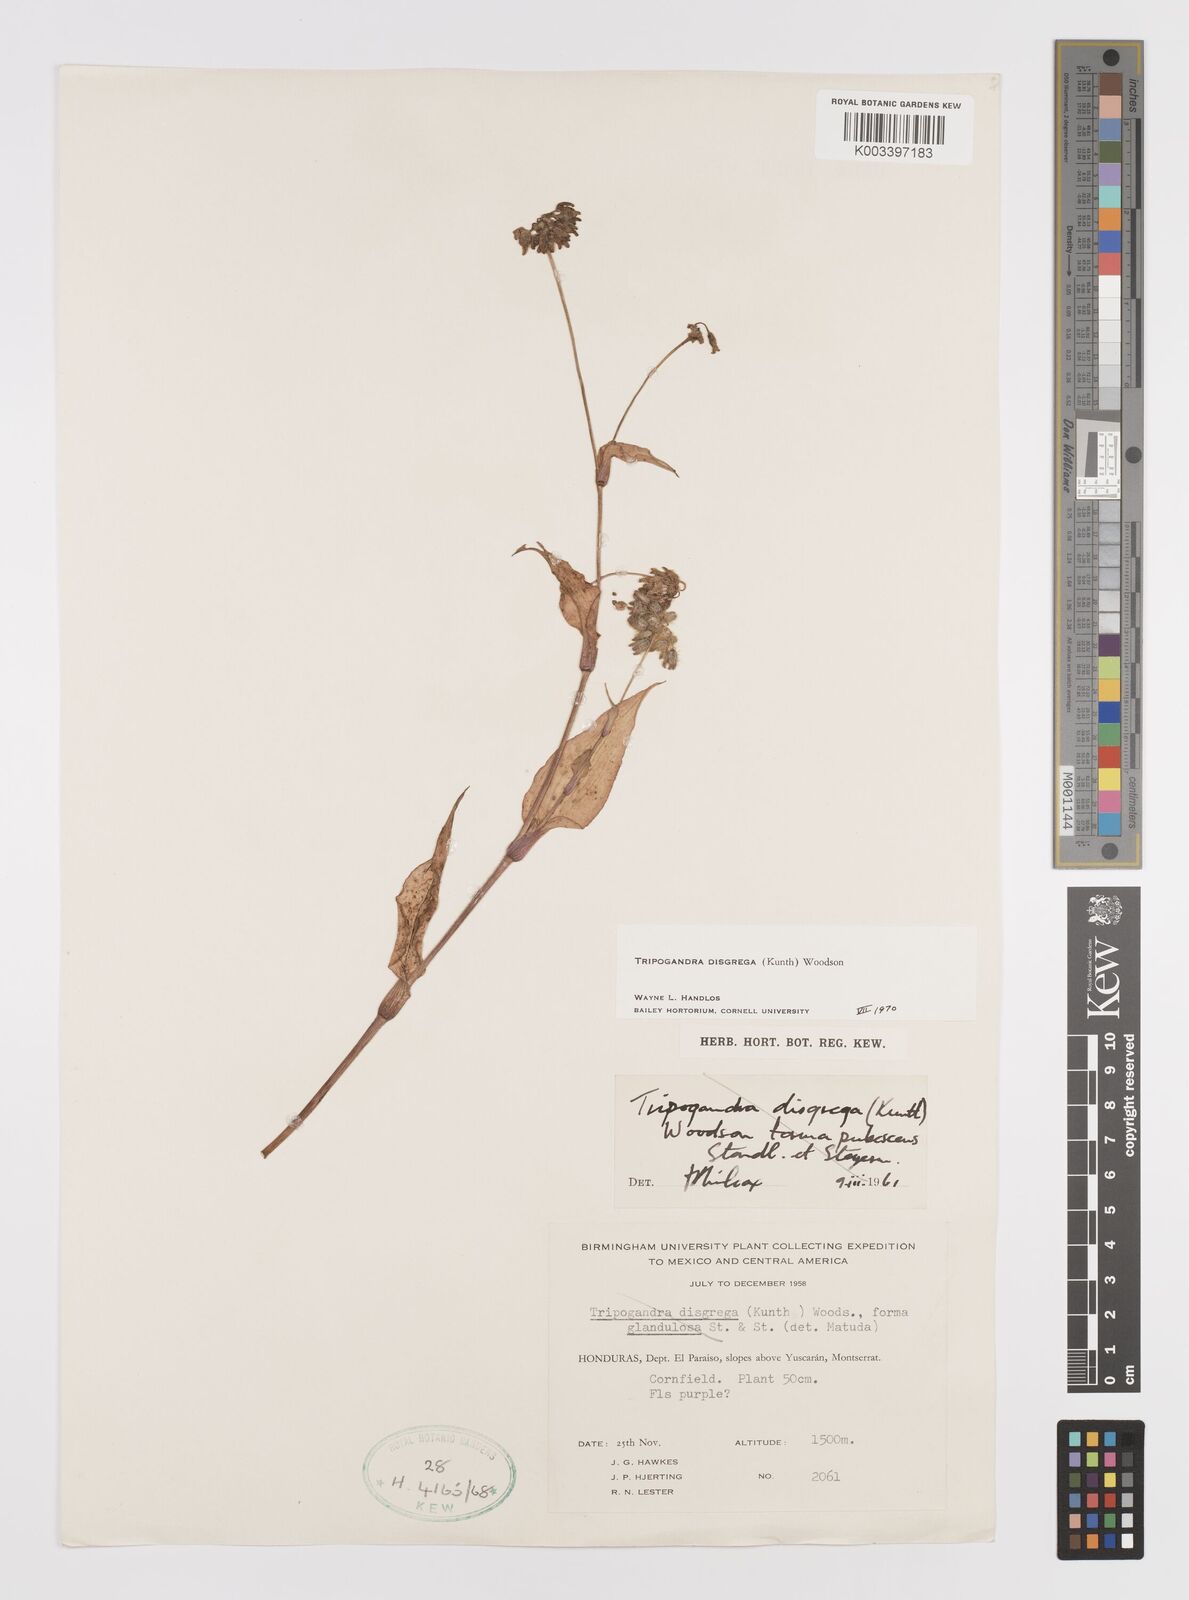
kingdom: Plantae
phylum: Tracheophyta
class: Liliopsida
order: Commelinales
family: Commelinaceae
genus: Callisia
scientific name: Callisia disgrega
